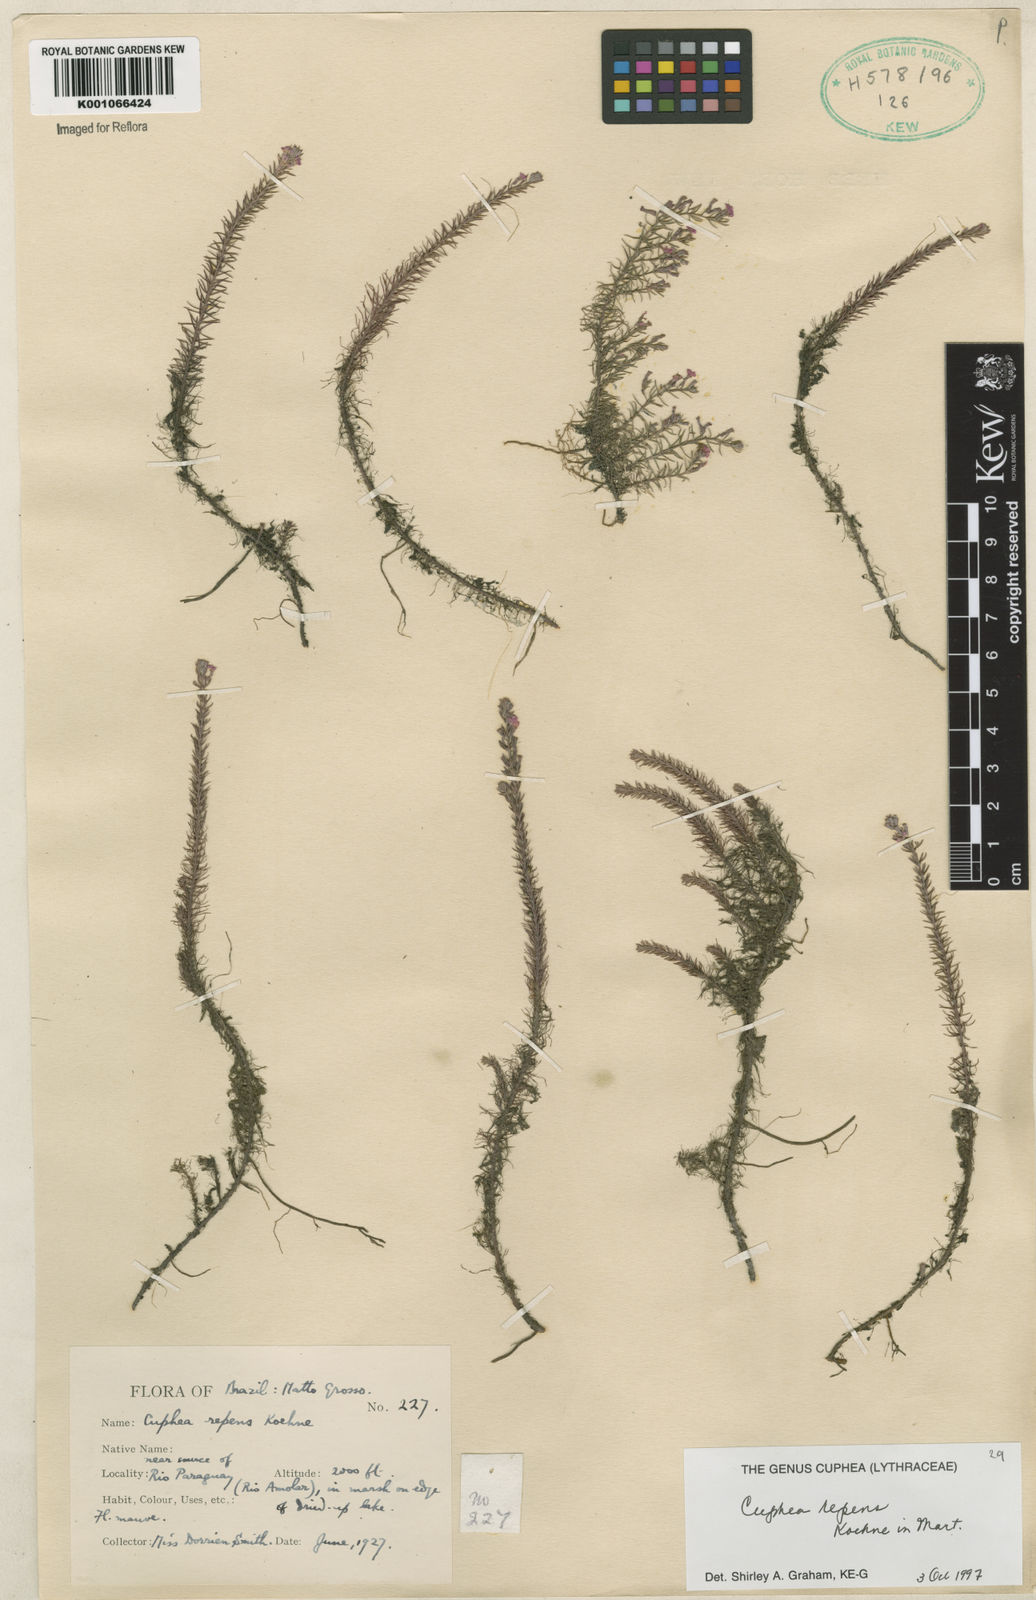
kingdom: Plantae
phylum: Tracheophyta
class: Magnoliopsida
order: Myrtales
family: Lythraceae
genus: Cuphea
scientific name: Cuphea repens
